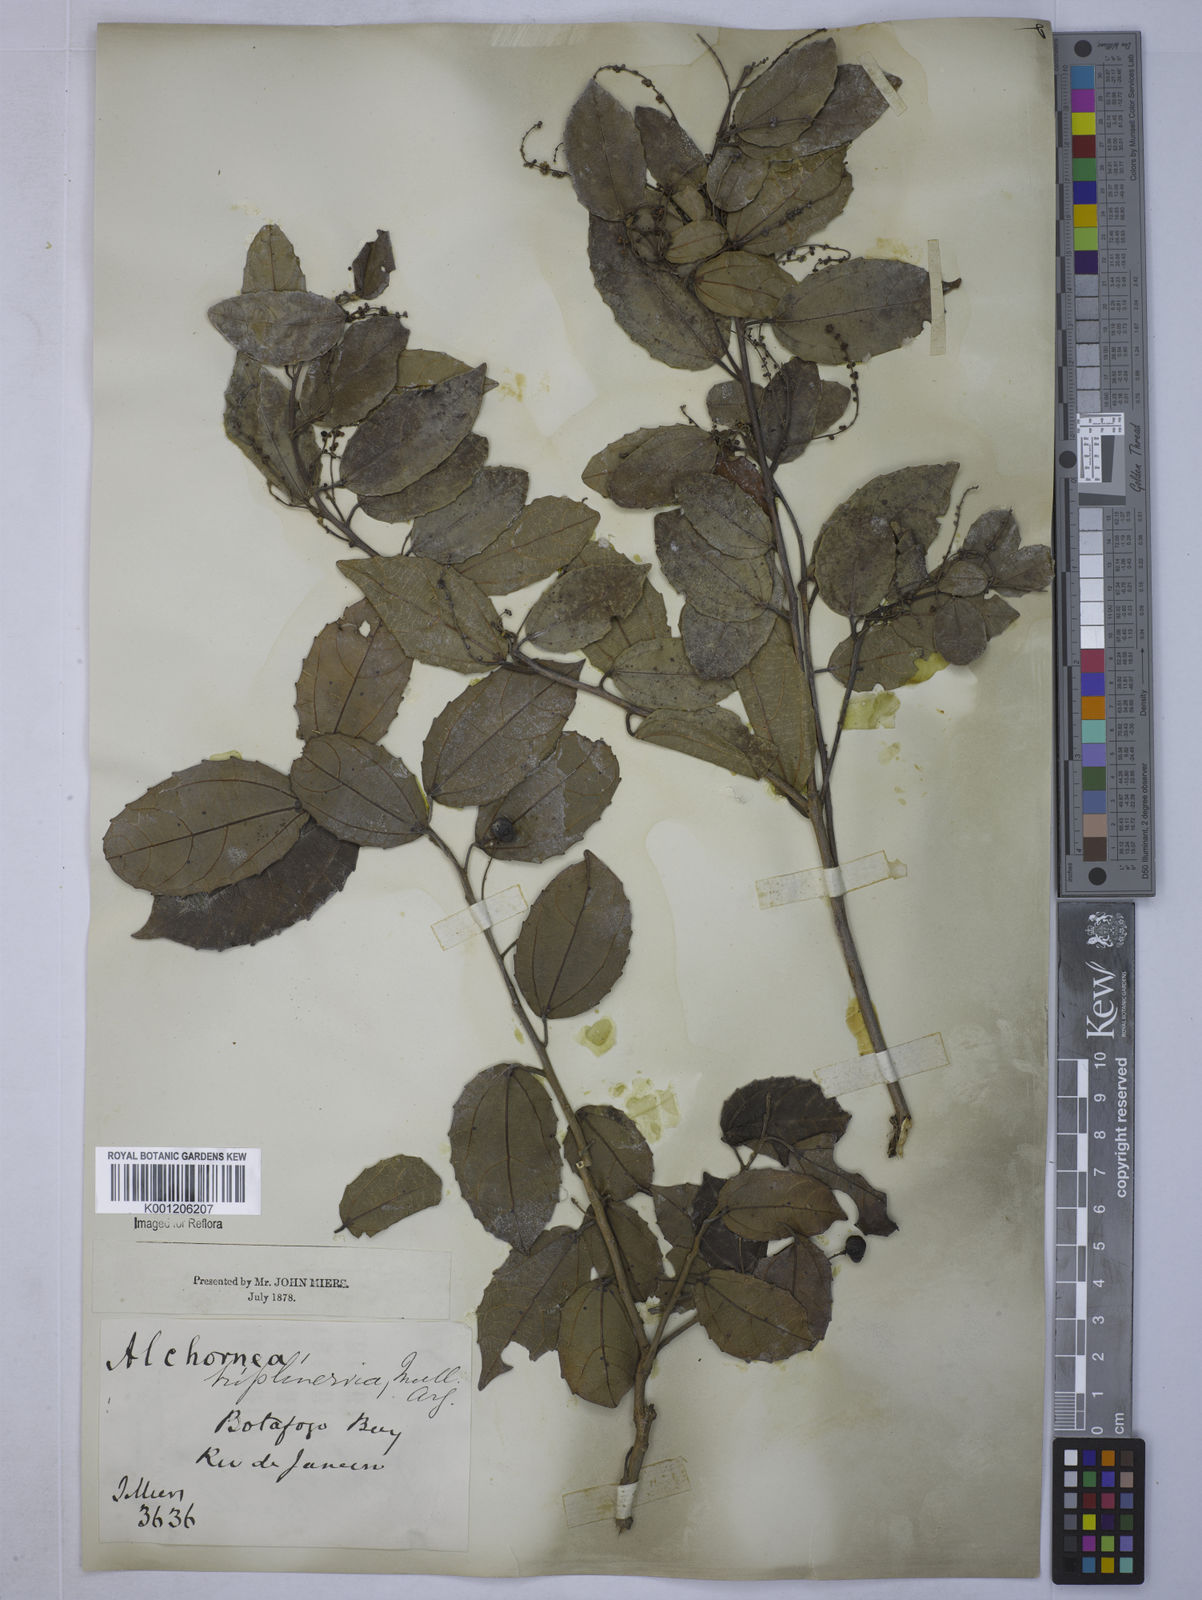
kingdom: Plantae
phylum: Tracheophyta
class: Magnoliopsida
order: Malpighiales
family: Euphorbiaceae
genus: Alchornea
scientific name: Alchornea
